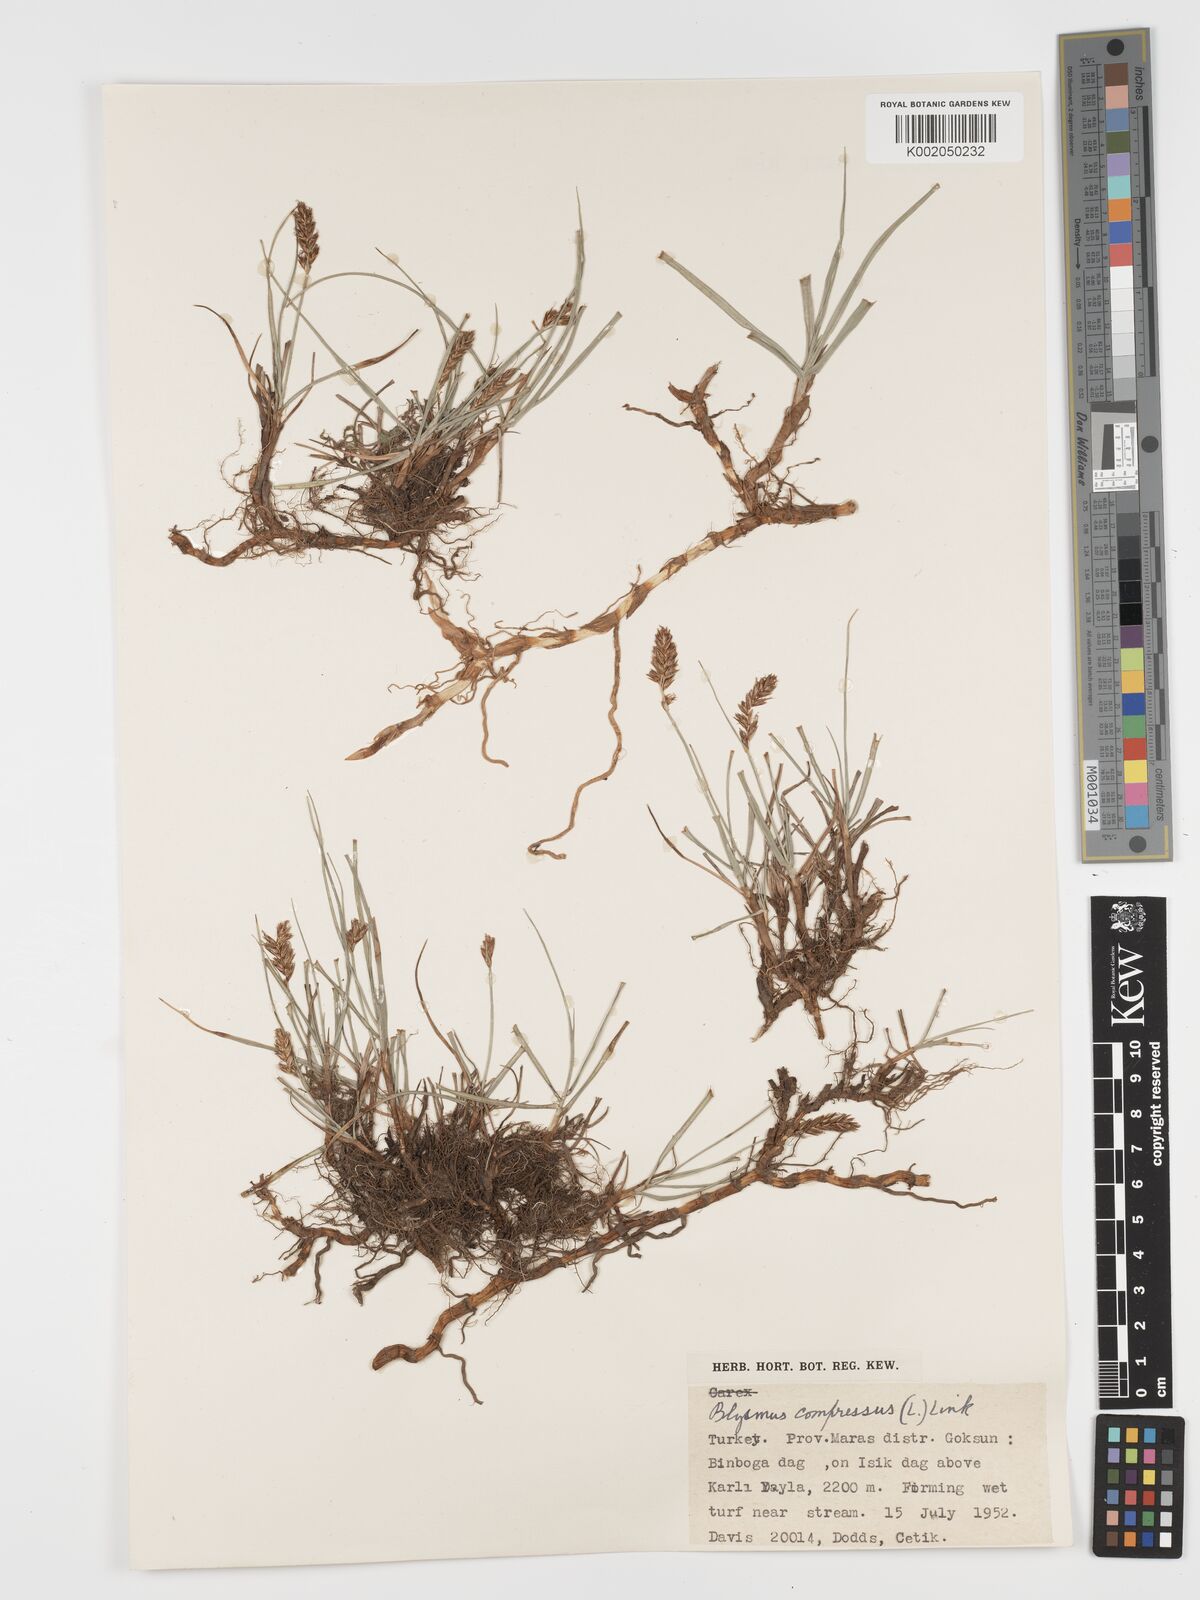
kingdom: Plantae
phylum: Tracheophyta
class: Liliopsida
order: Poales
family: Cyperaceae
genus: Blysmus
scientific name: Blysmus compressus
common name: Flat-sedge
